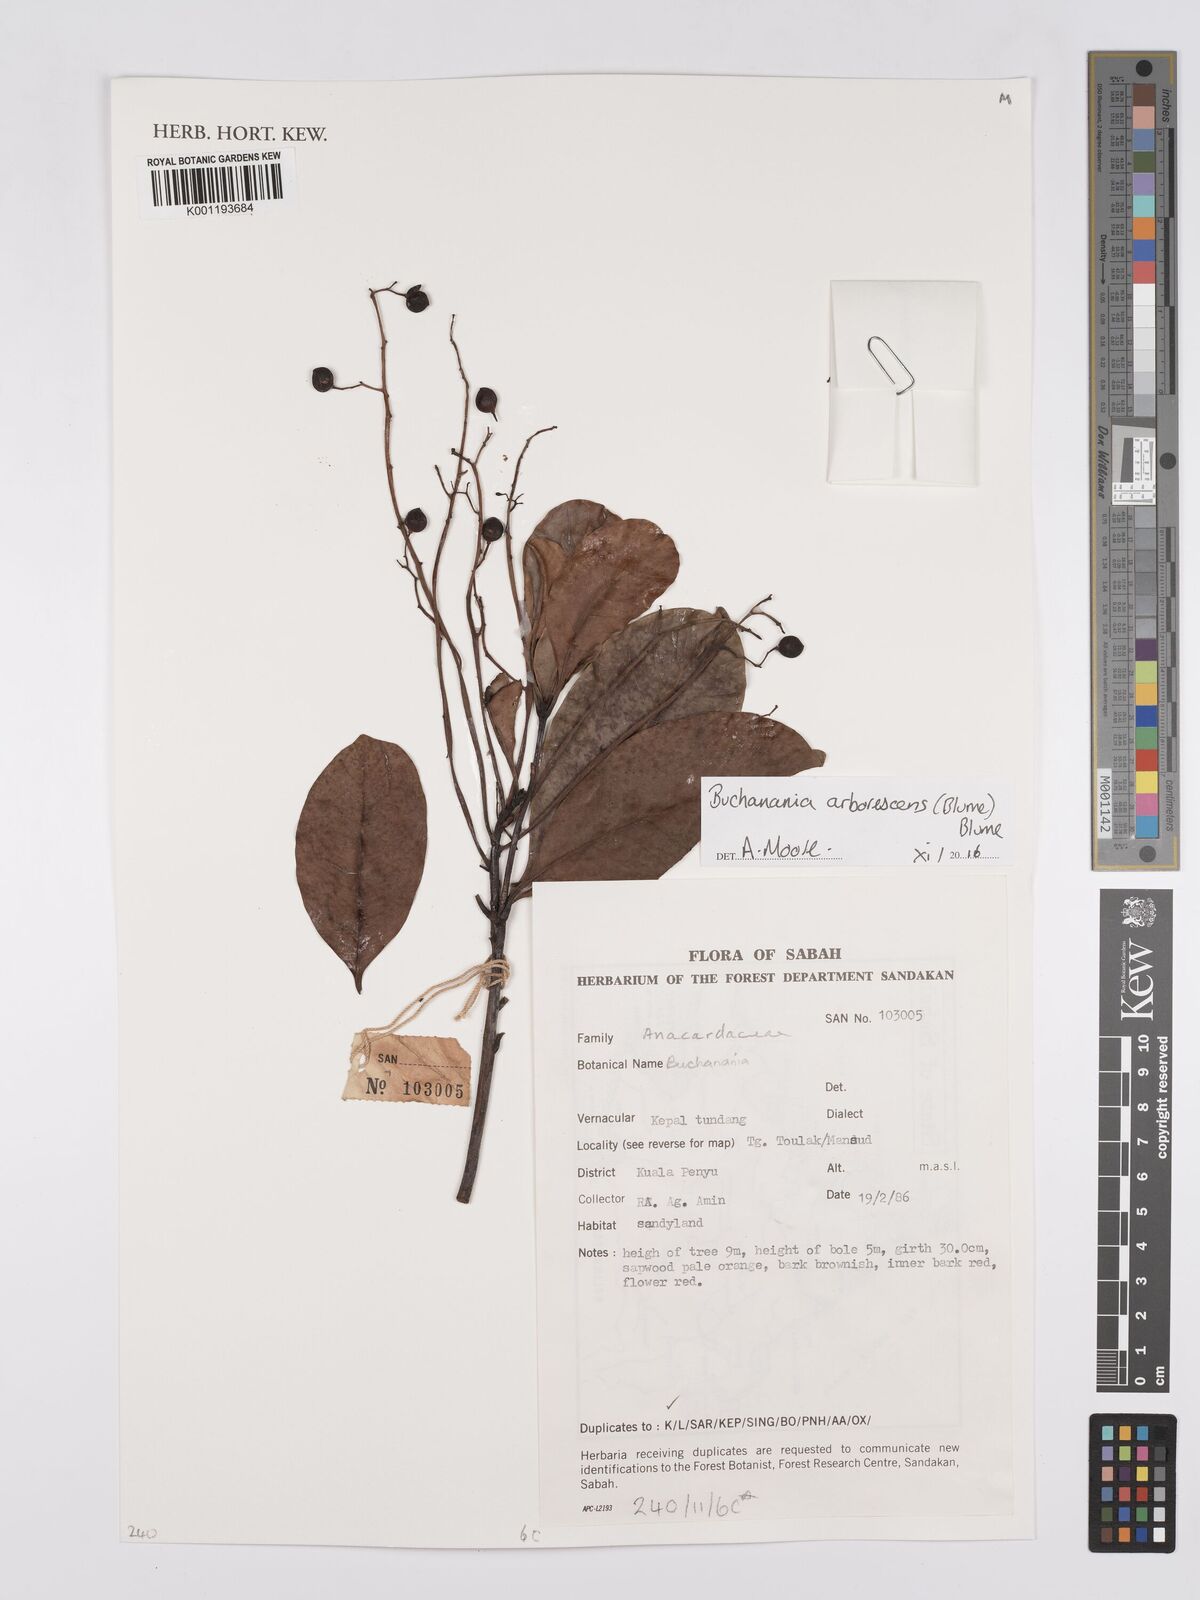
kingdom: Plantae
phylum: Tracheophyta
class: Magnoliopsida
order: Sapindales
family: Anacardiaceae
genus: Buchanania
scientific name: Buchanania arborescens
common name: Sparrow’s mango
